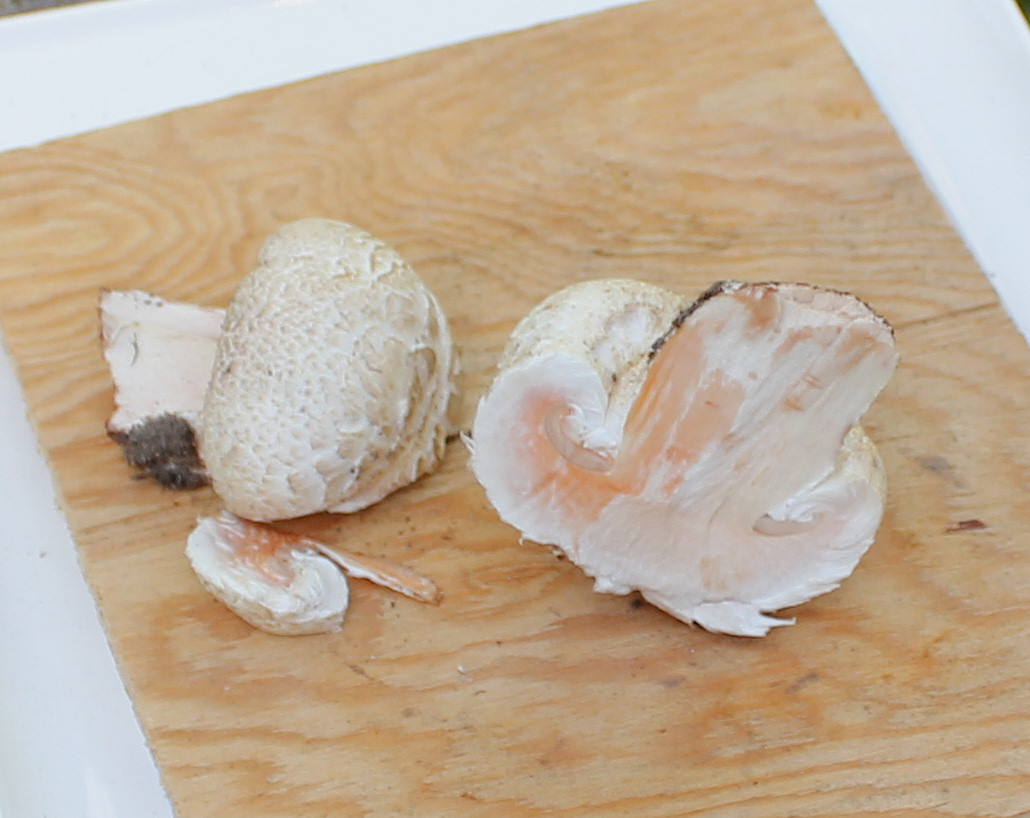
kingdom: Fungi
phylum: Basidiomycota
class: Agaricomycetes
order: Agaricales
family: Agaricaceae
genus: Agaricus
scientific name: Agaricus bernardii
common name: strandengs-champignon
